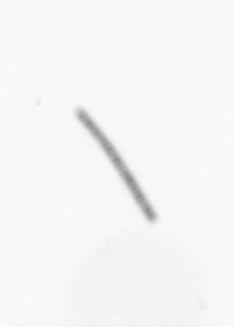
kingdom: Chromista
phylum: Ochrophyta
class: Bacillariophyceae
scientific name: Bacillariophyceae
